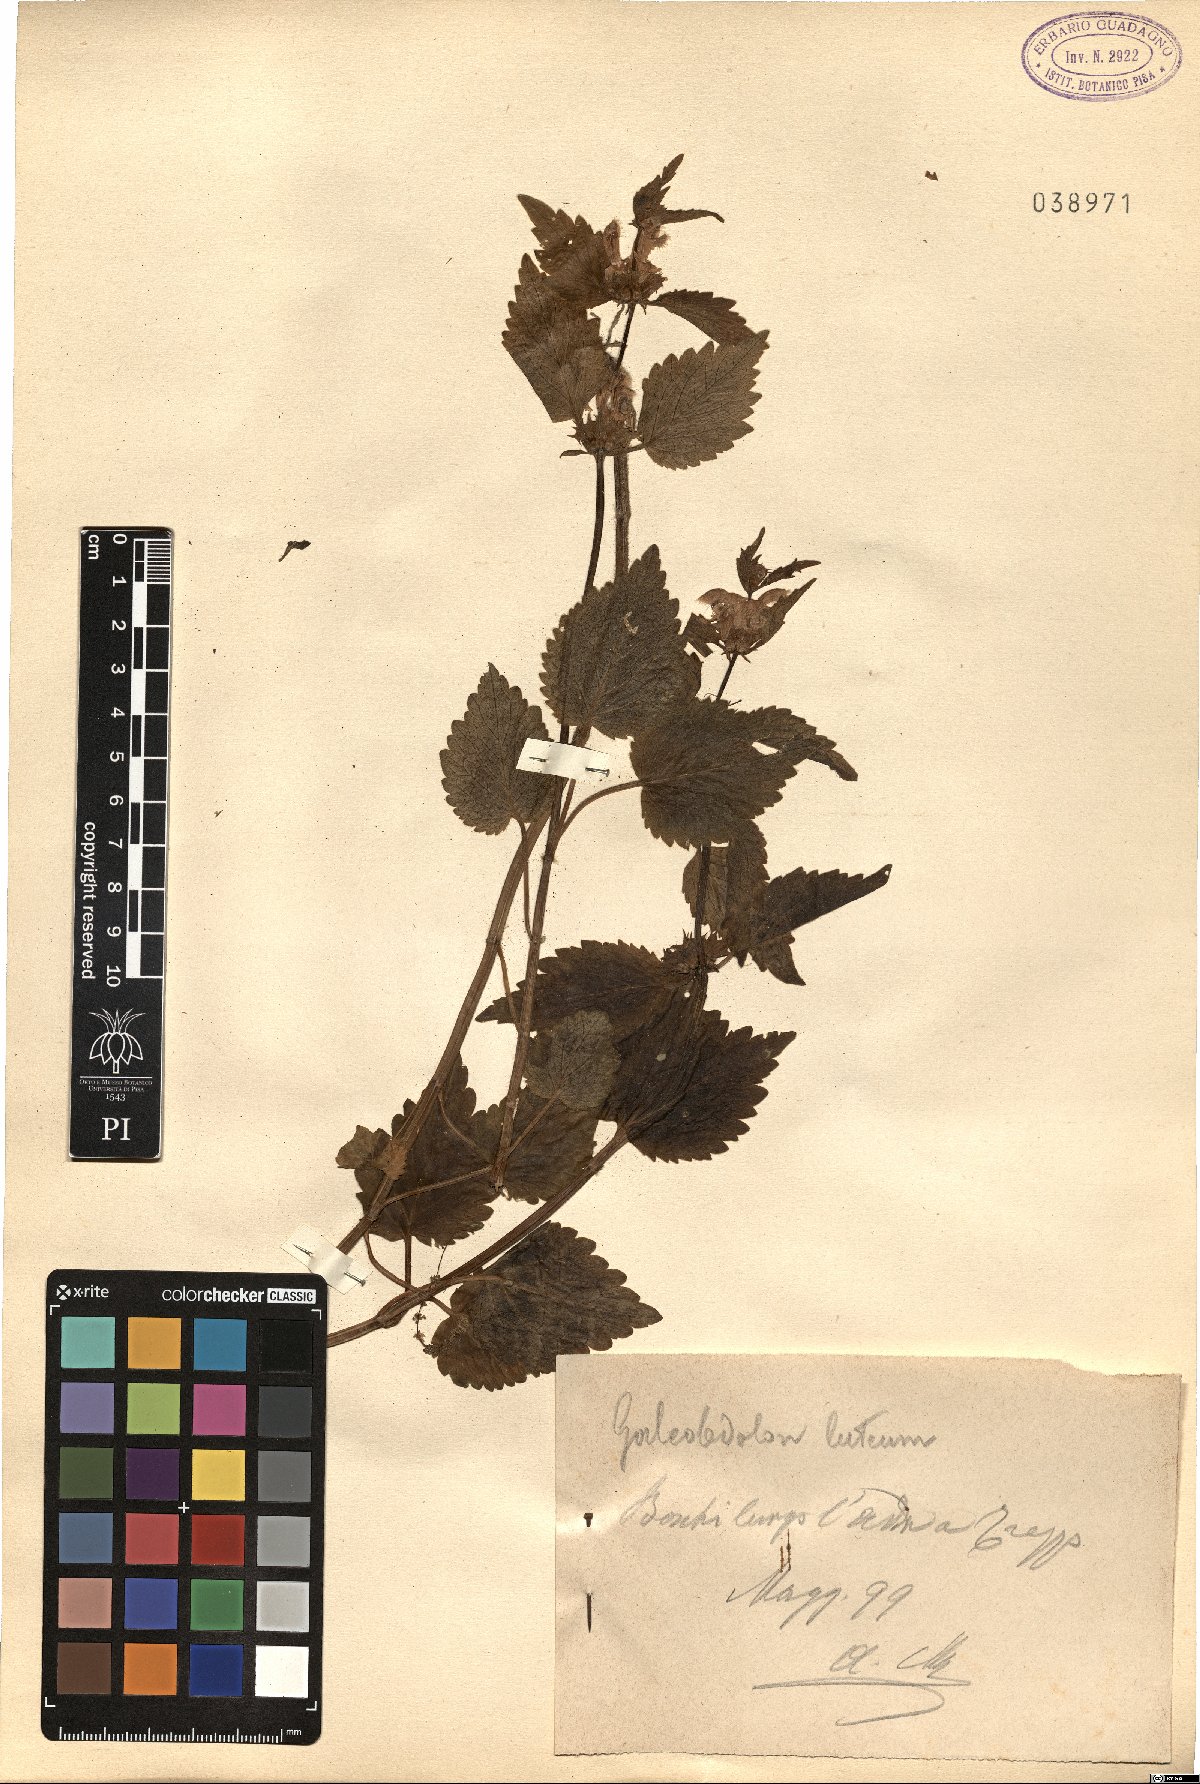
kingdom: Plantae
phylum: Tracheophyta
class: Magnoliopsida
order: Lamiales
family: Lamiaceae
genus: Lamium
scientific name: Lamium galeobdolon
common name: Yellow archangel
